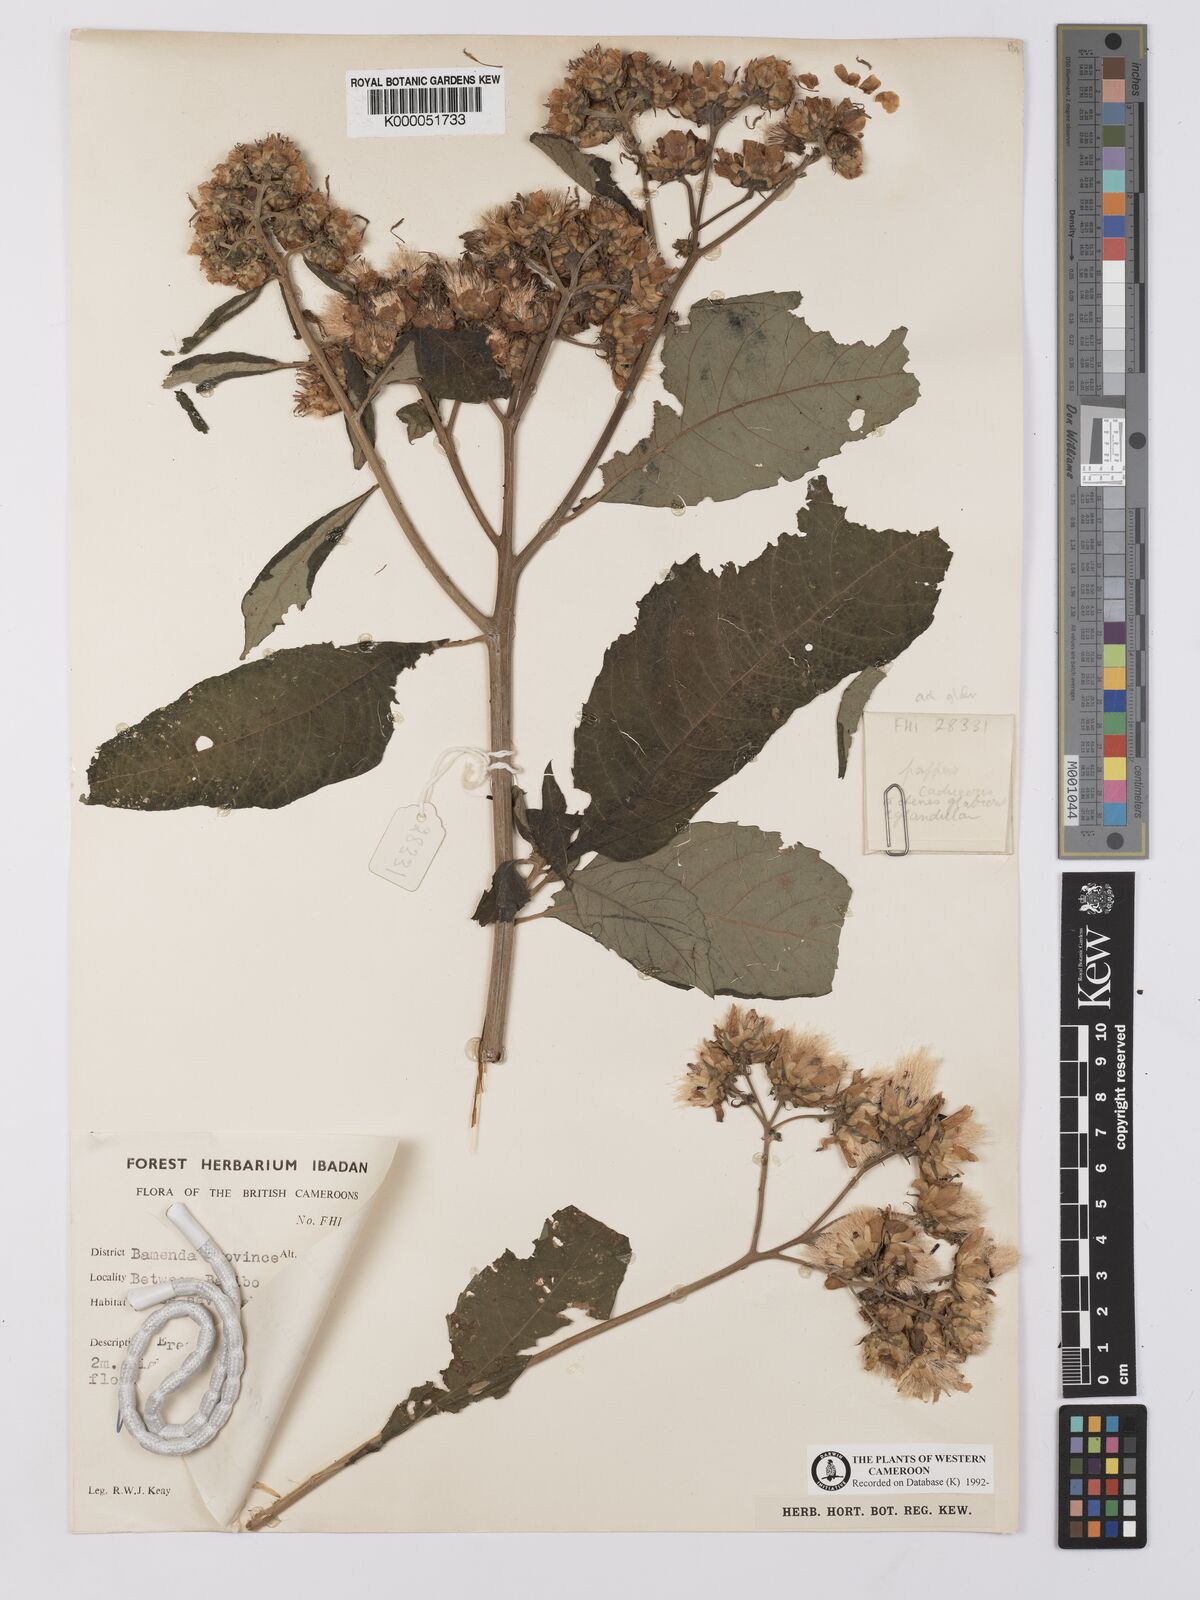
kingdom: Plantae
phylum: Tracheophyta
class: Magnoliopsida
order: Asterales
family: Asteraceae
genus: Baccharoides
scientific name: Baccharoides hymenolepis
